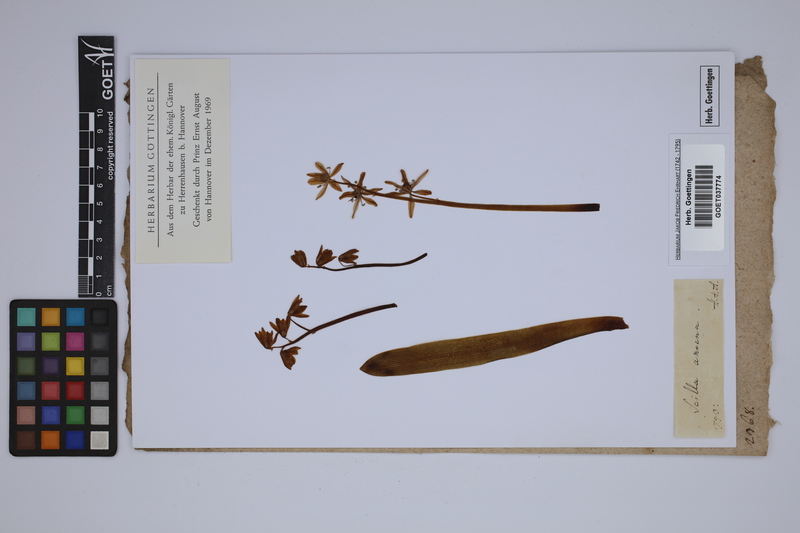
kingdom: Plantae
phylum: Tracheophyta
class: Liliopsida
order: Asparagales
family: Asparagaceae
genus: Scilla
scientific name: Scilla amoena
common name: Star-hyacinth
